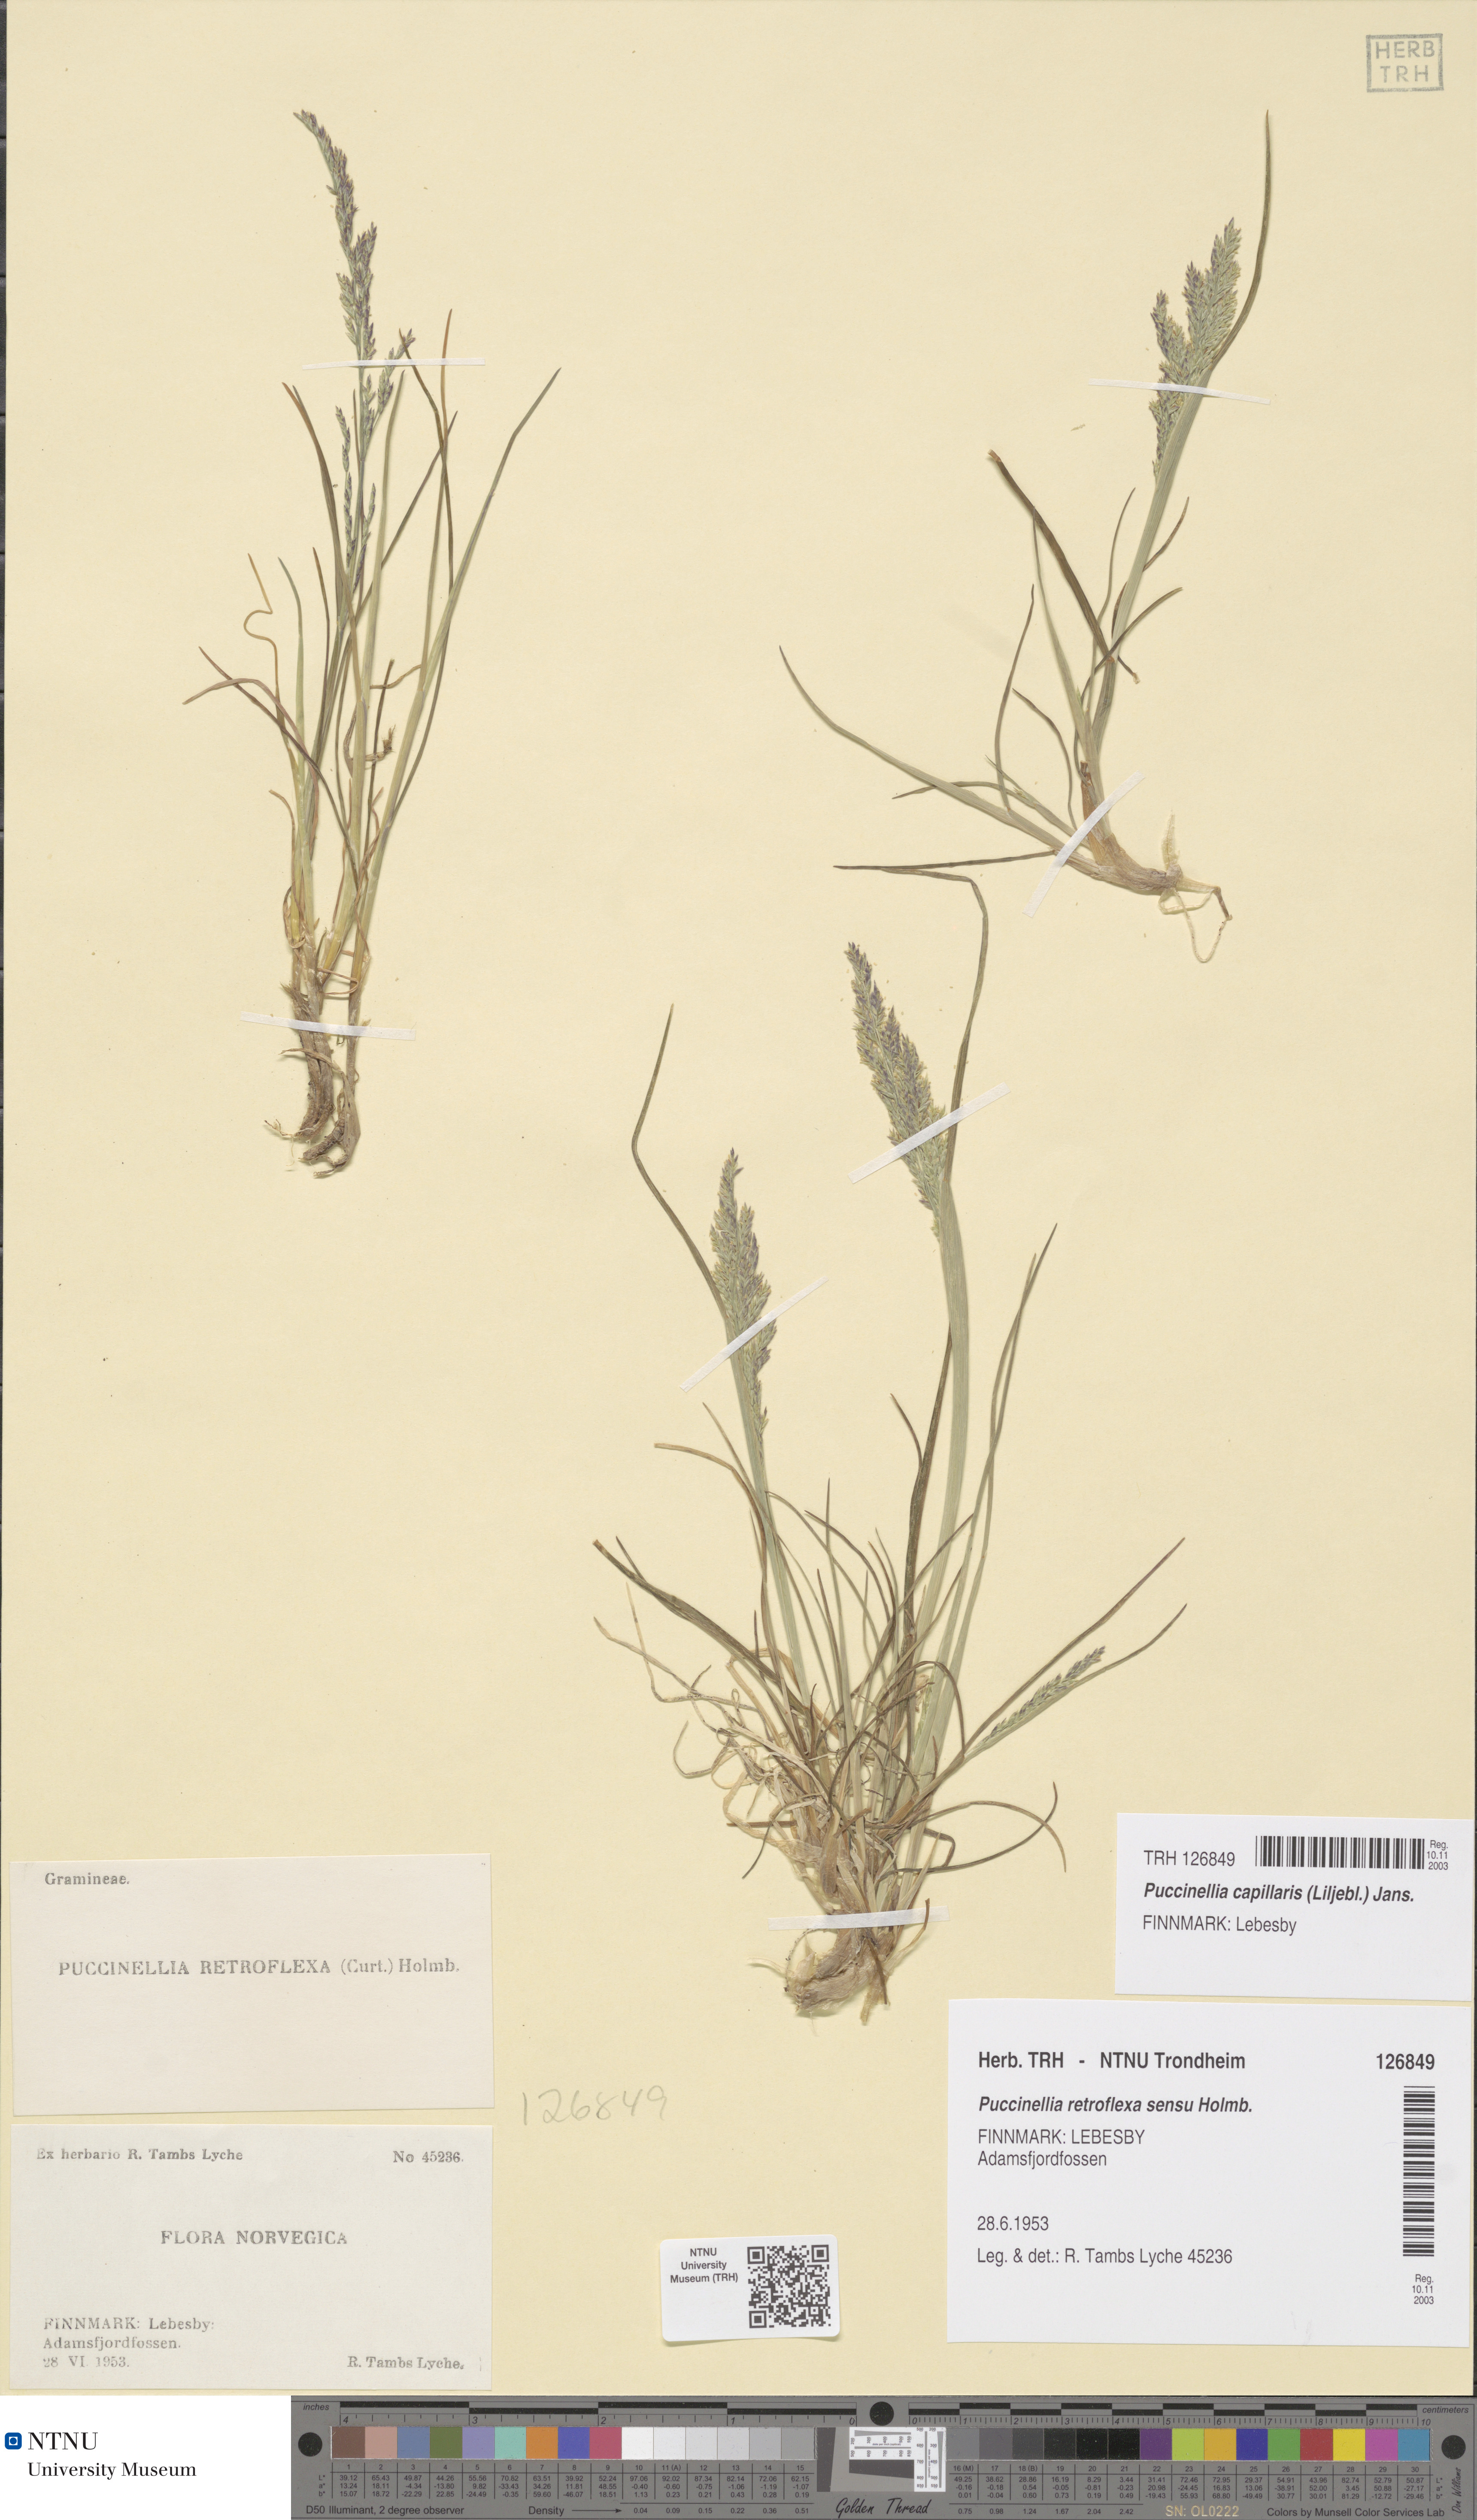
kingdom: Plantae
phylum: Tracheophyta
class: Liliopsida
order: Poales
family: Poaceae
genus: Puccinellia
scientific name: Puccinellia distans
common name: Weeping alkaligrass
